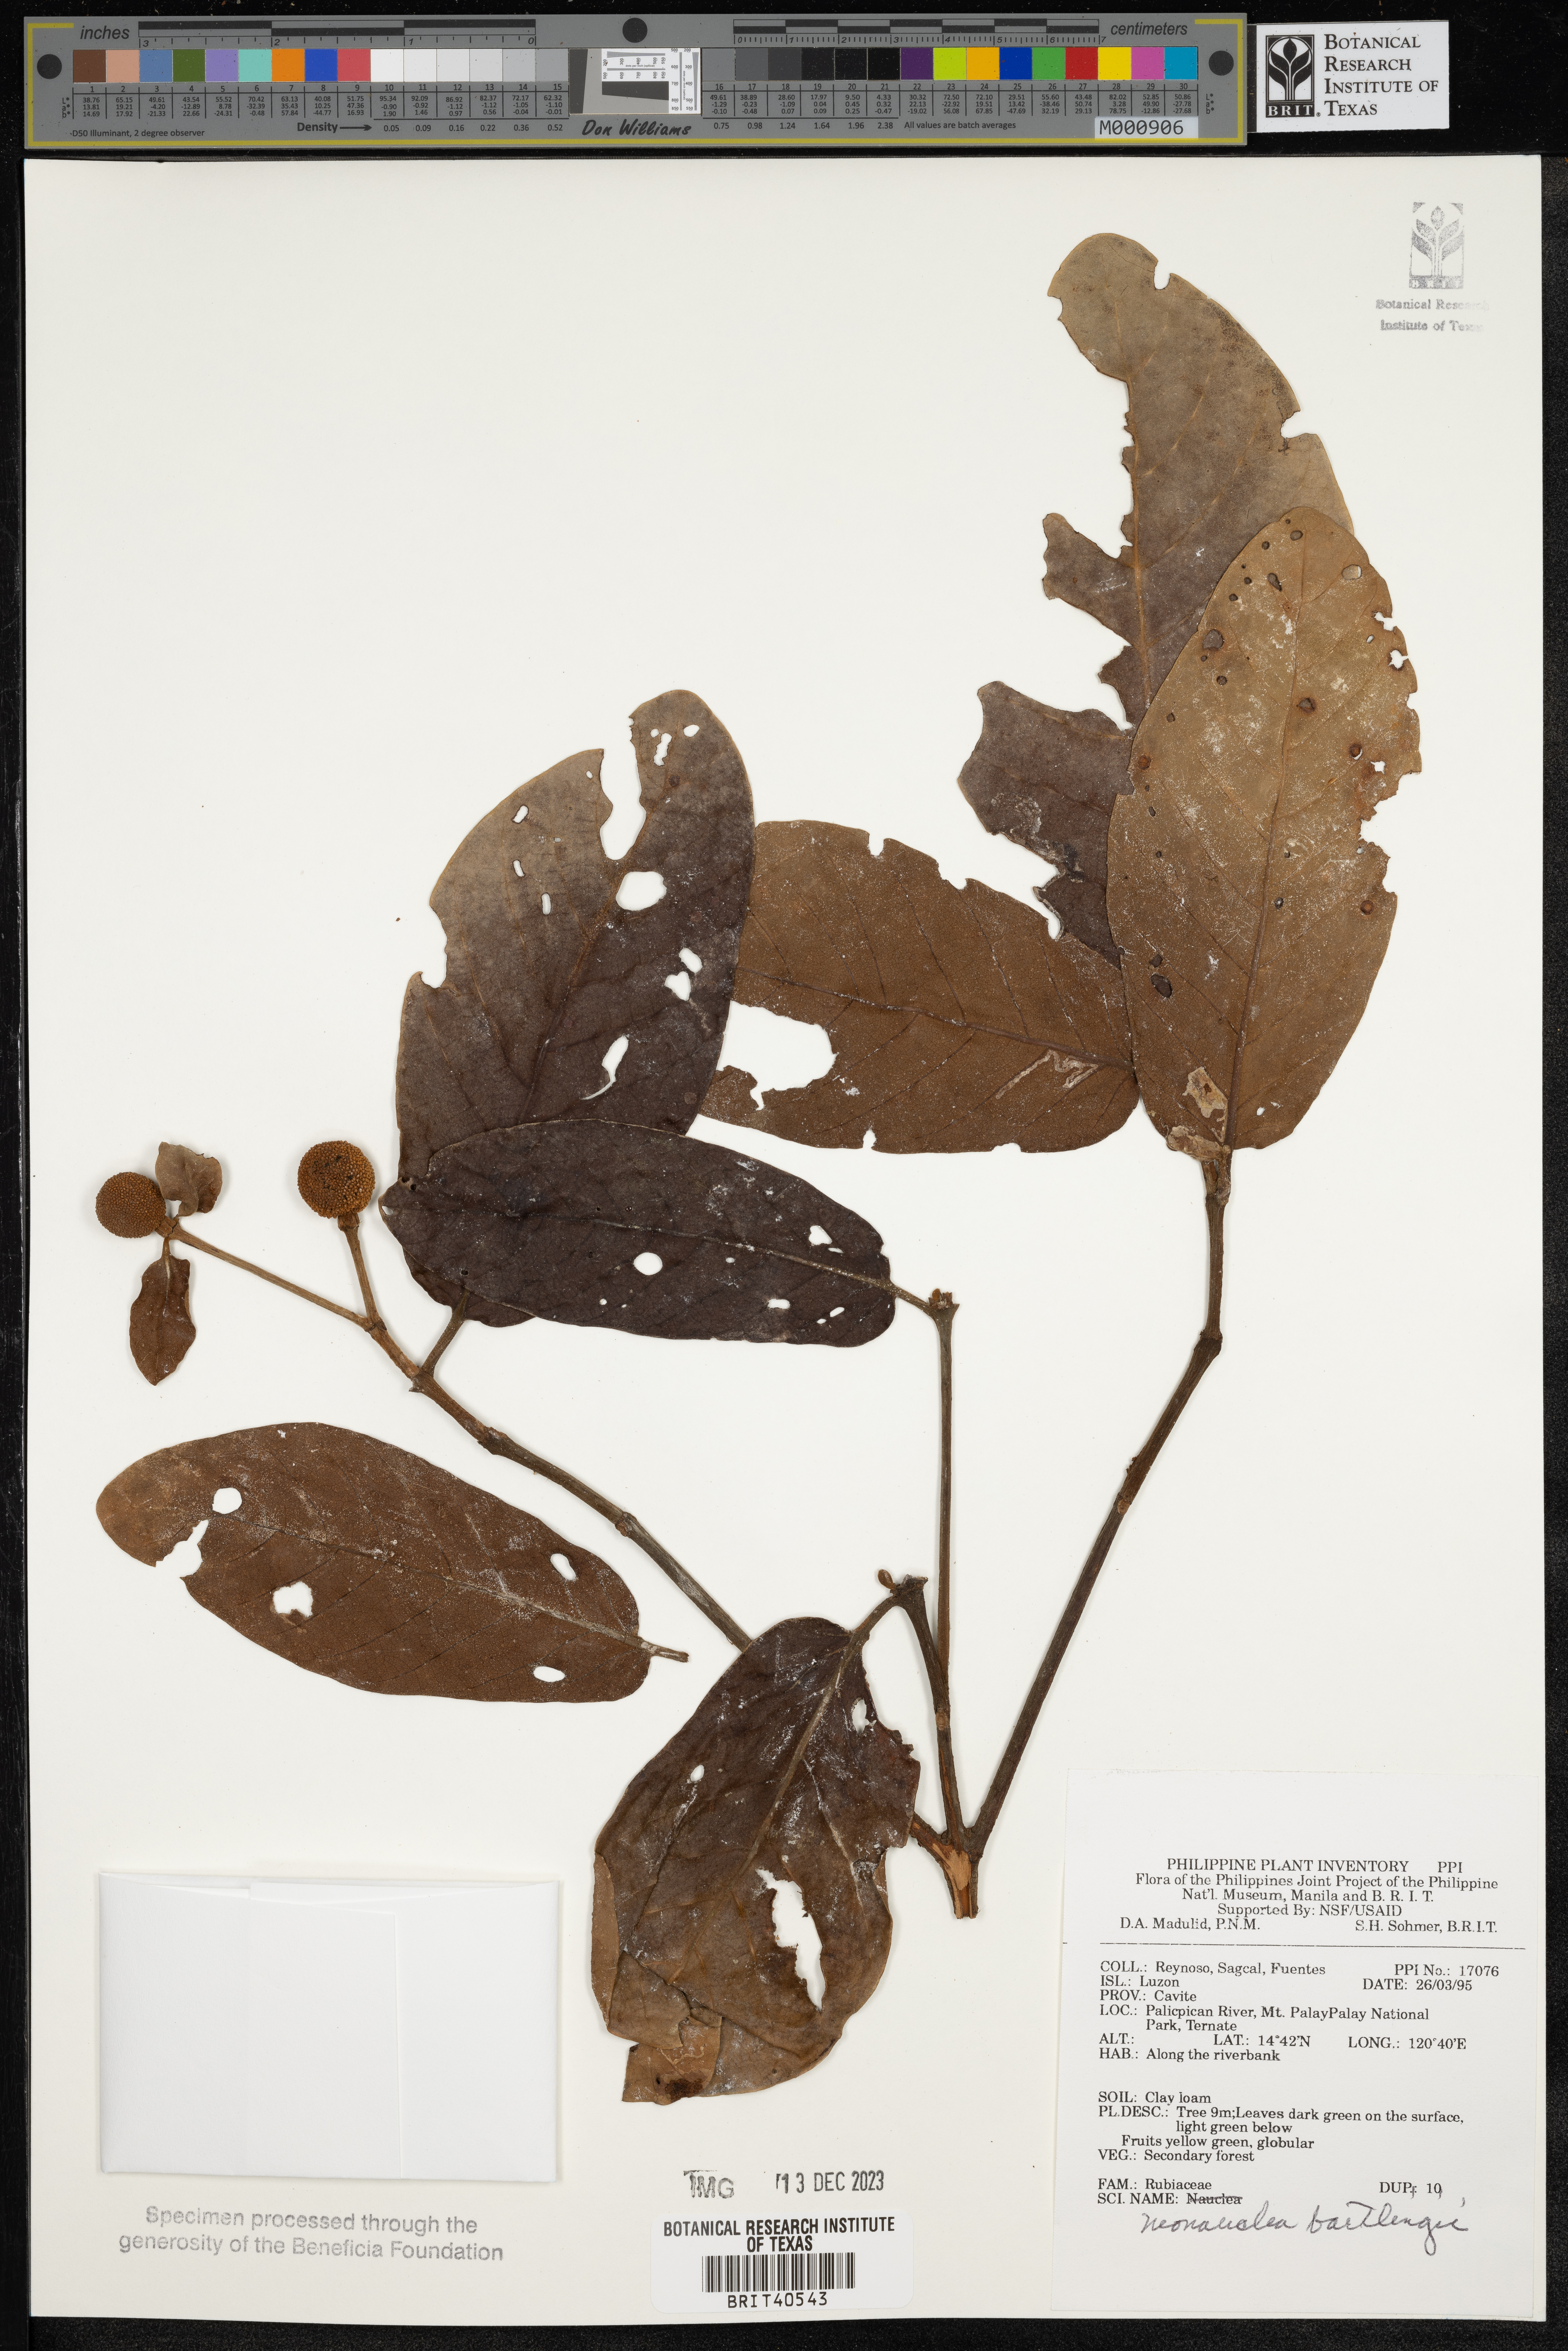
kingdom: Plantae
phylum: Tracheophyta
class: Magnoliopsida
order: Gentianales
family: Rubiaceae
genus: Neonauclea
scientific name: Neonauclea bartlingii
